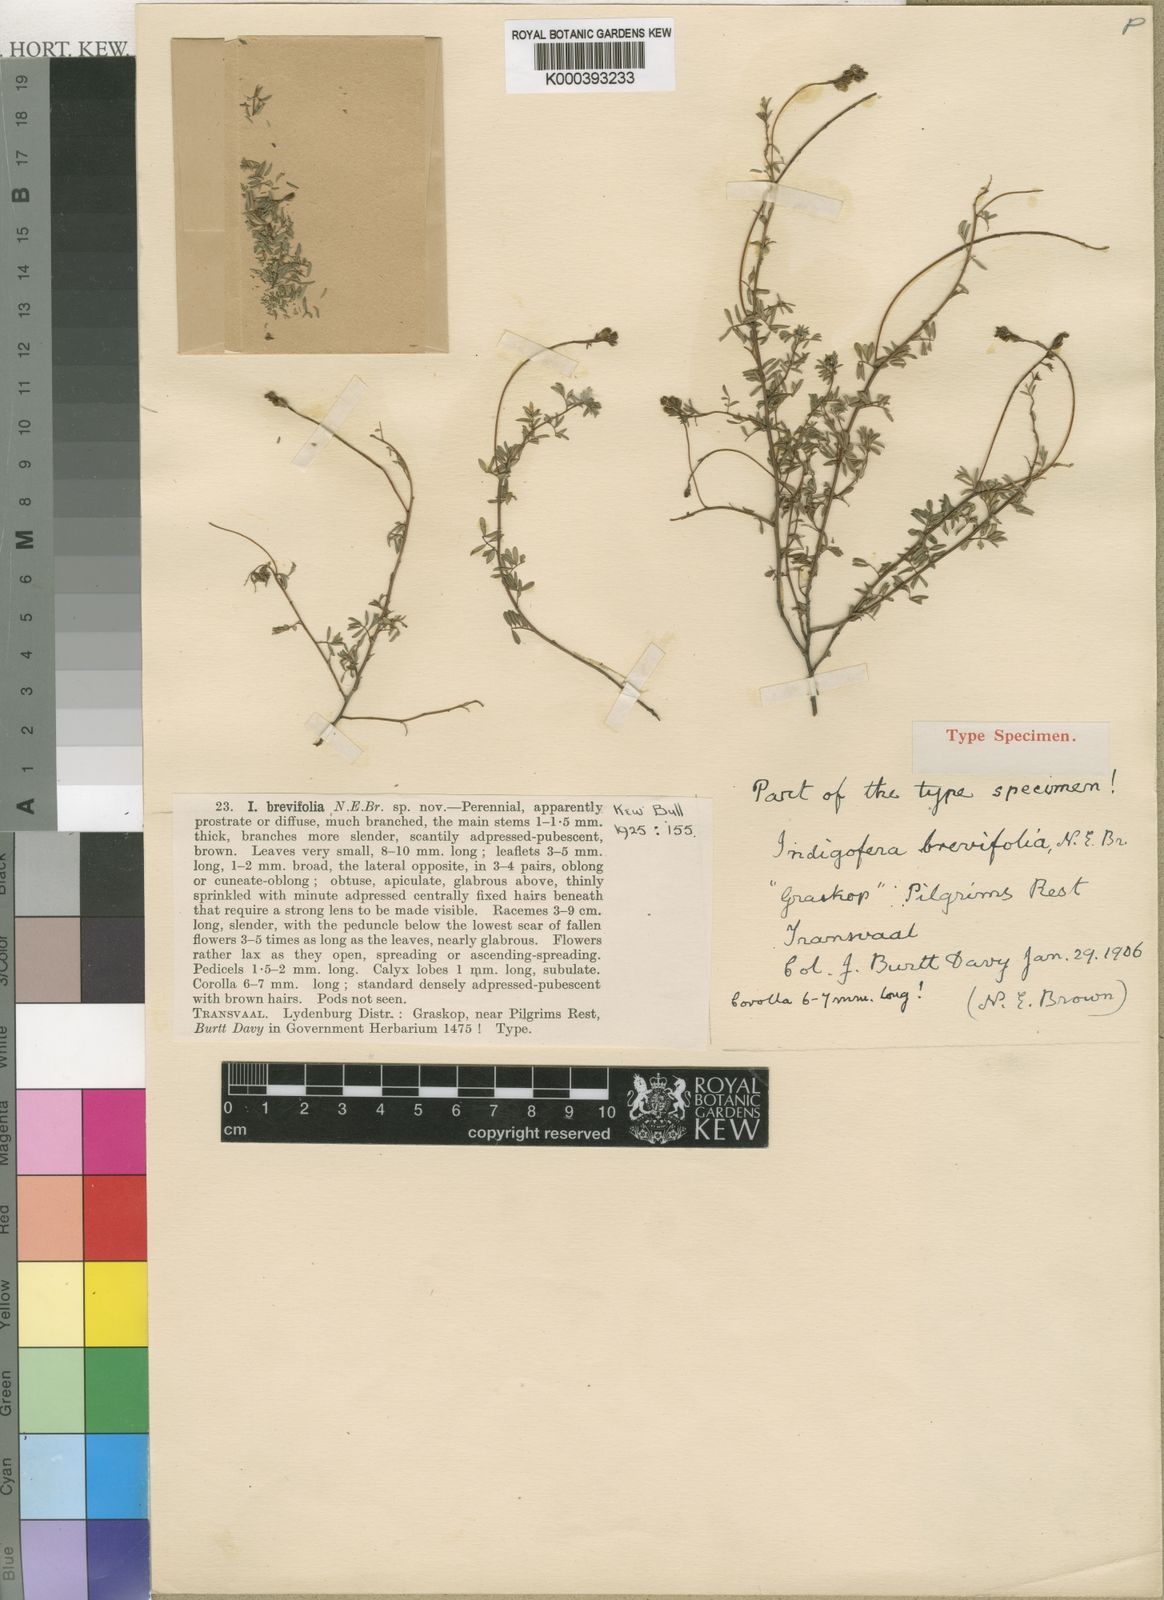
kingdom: Plantae
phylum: Tracheophyta
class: Magnoliopsida
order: Fabales
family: Fabaceae
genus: Indigofera
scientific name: Indigofera hedyantha
